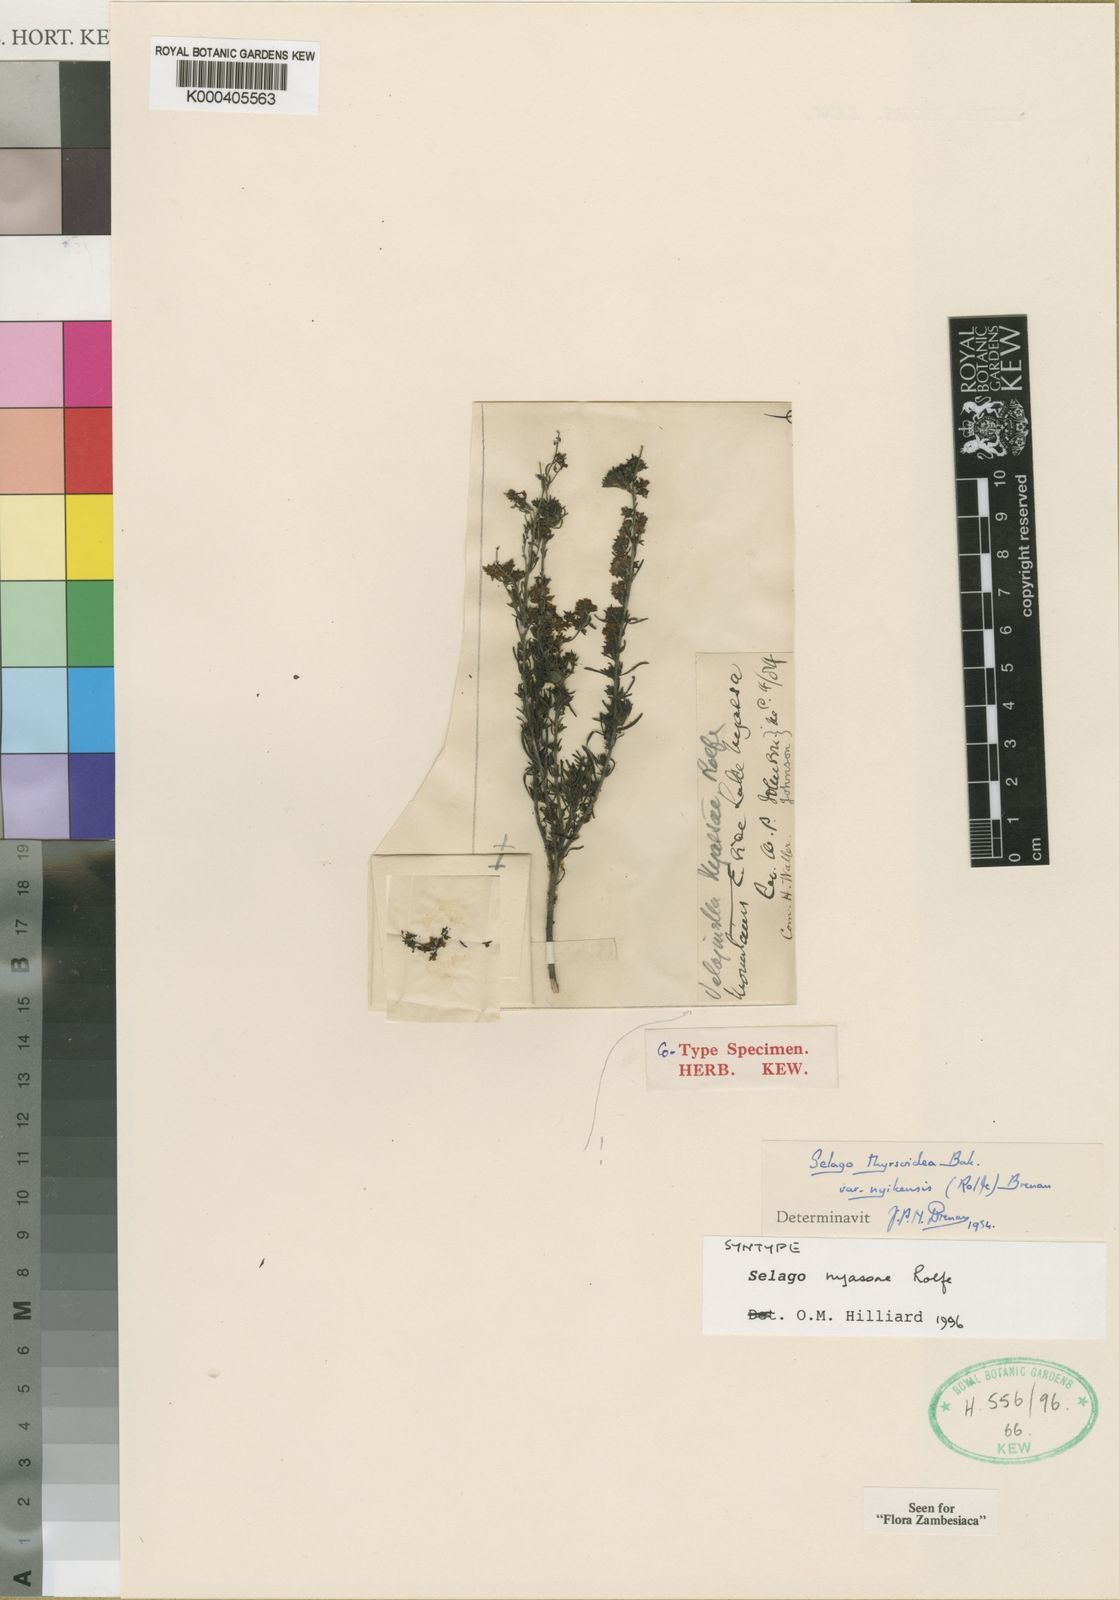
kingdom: Plantae
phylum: Tracheophyta
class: Magnoliopsida
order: Lamiales
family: Scrophulariaceae
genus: Selago
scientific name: Selago nyasae
